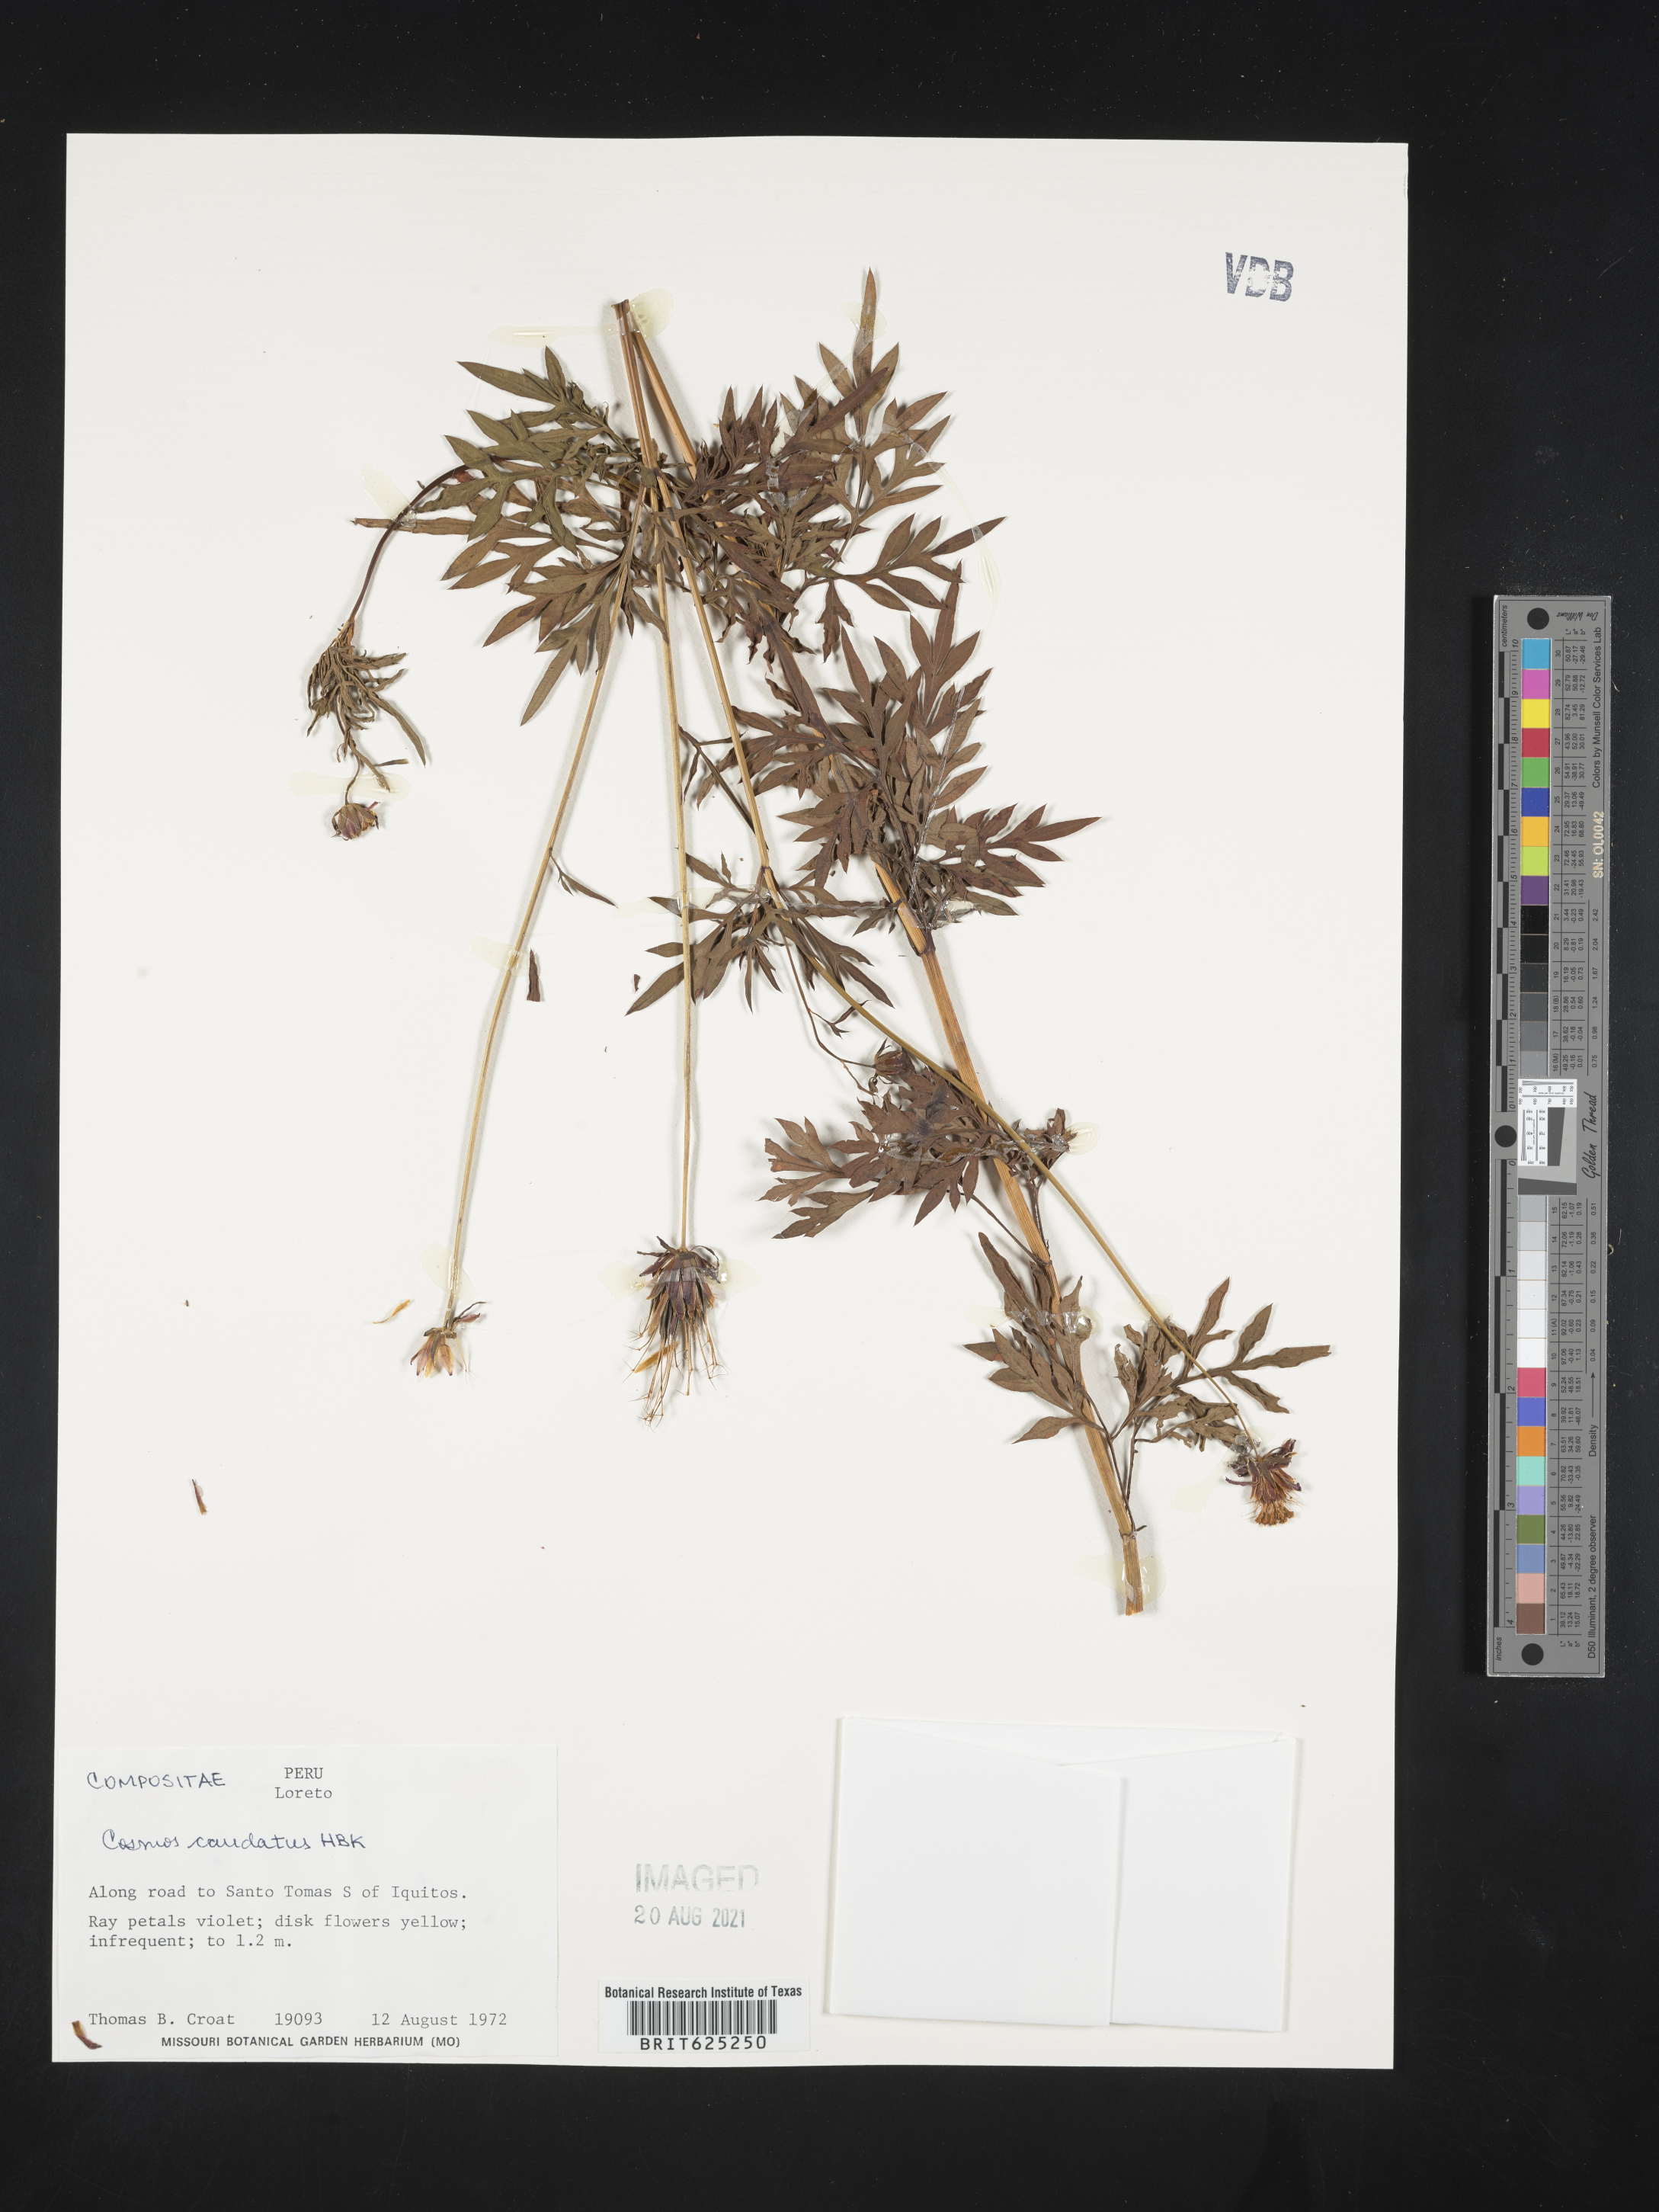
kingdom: Plantae
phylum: Tracheophyta
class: Magnoliopsida
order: Asterales
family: Asteraceae
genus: Cosmos
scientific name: Cosmos caudatus
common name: Wild cosmos
